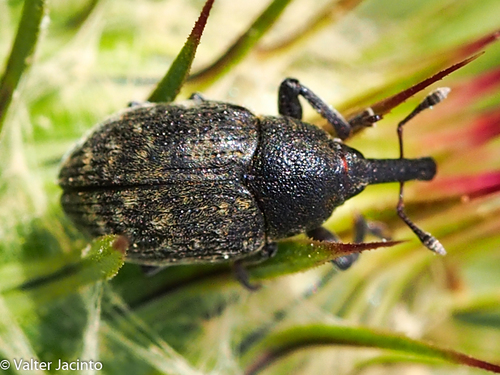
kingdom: Animalia
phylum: Arthropoda
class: Insecta
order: Coleoptera
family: Curculionidae
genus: Larinus
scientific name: Larinus
